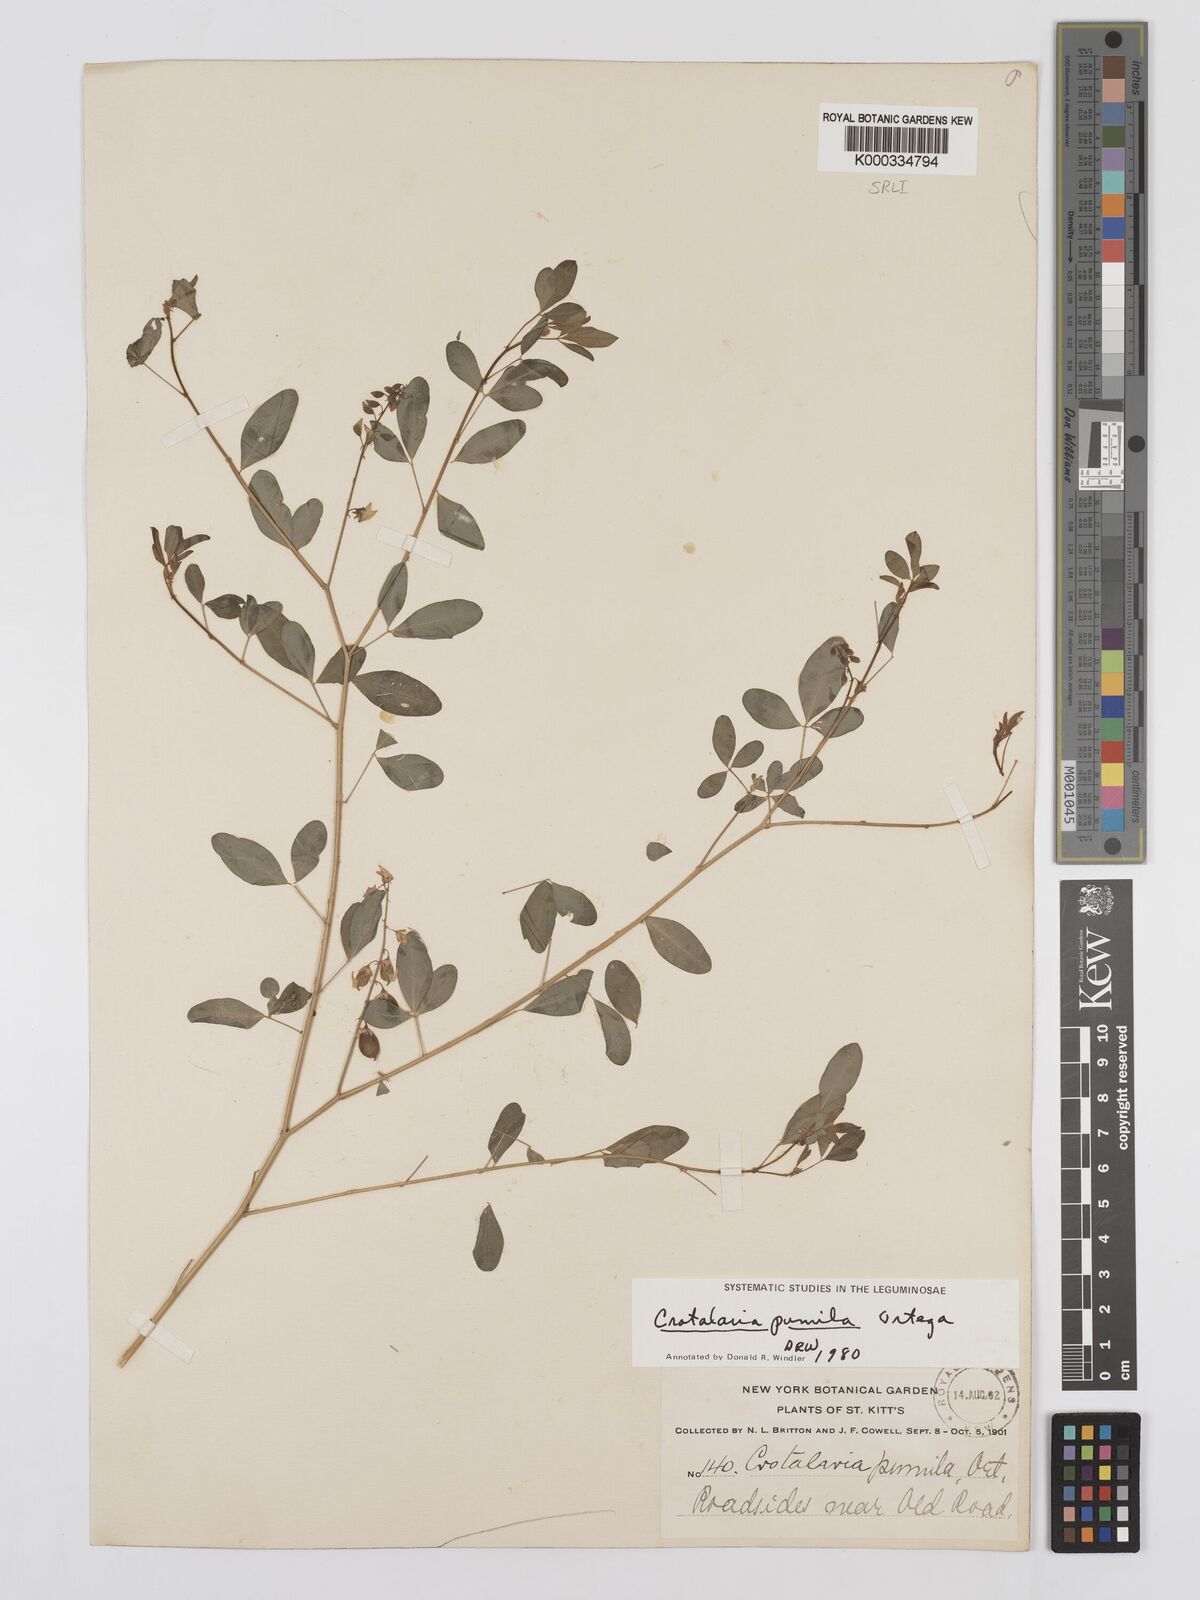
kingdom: Plantae
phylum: Tracheophyta
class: Magnoliopsida
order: Fabales
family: Fabaceae
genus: Crotalaria
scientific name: Crotalaria pumila
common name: Low rattlebox
